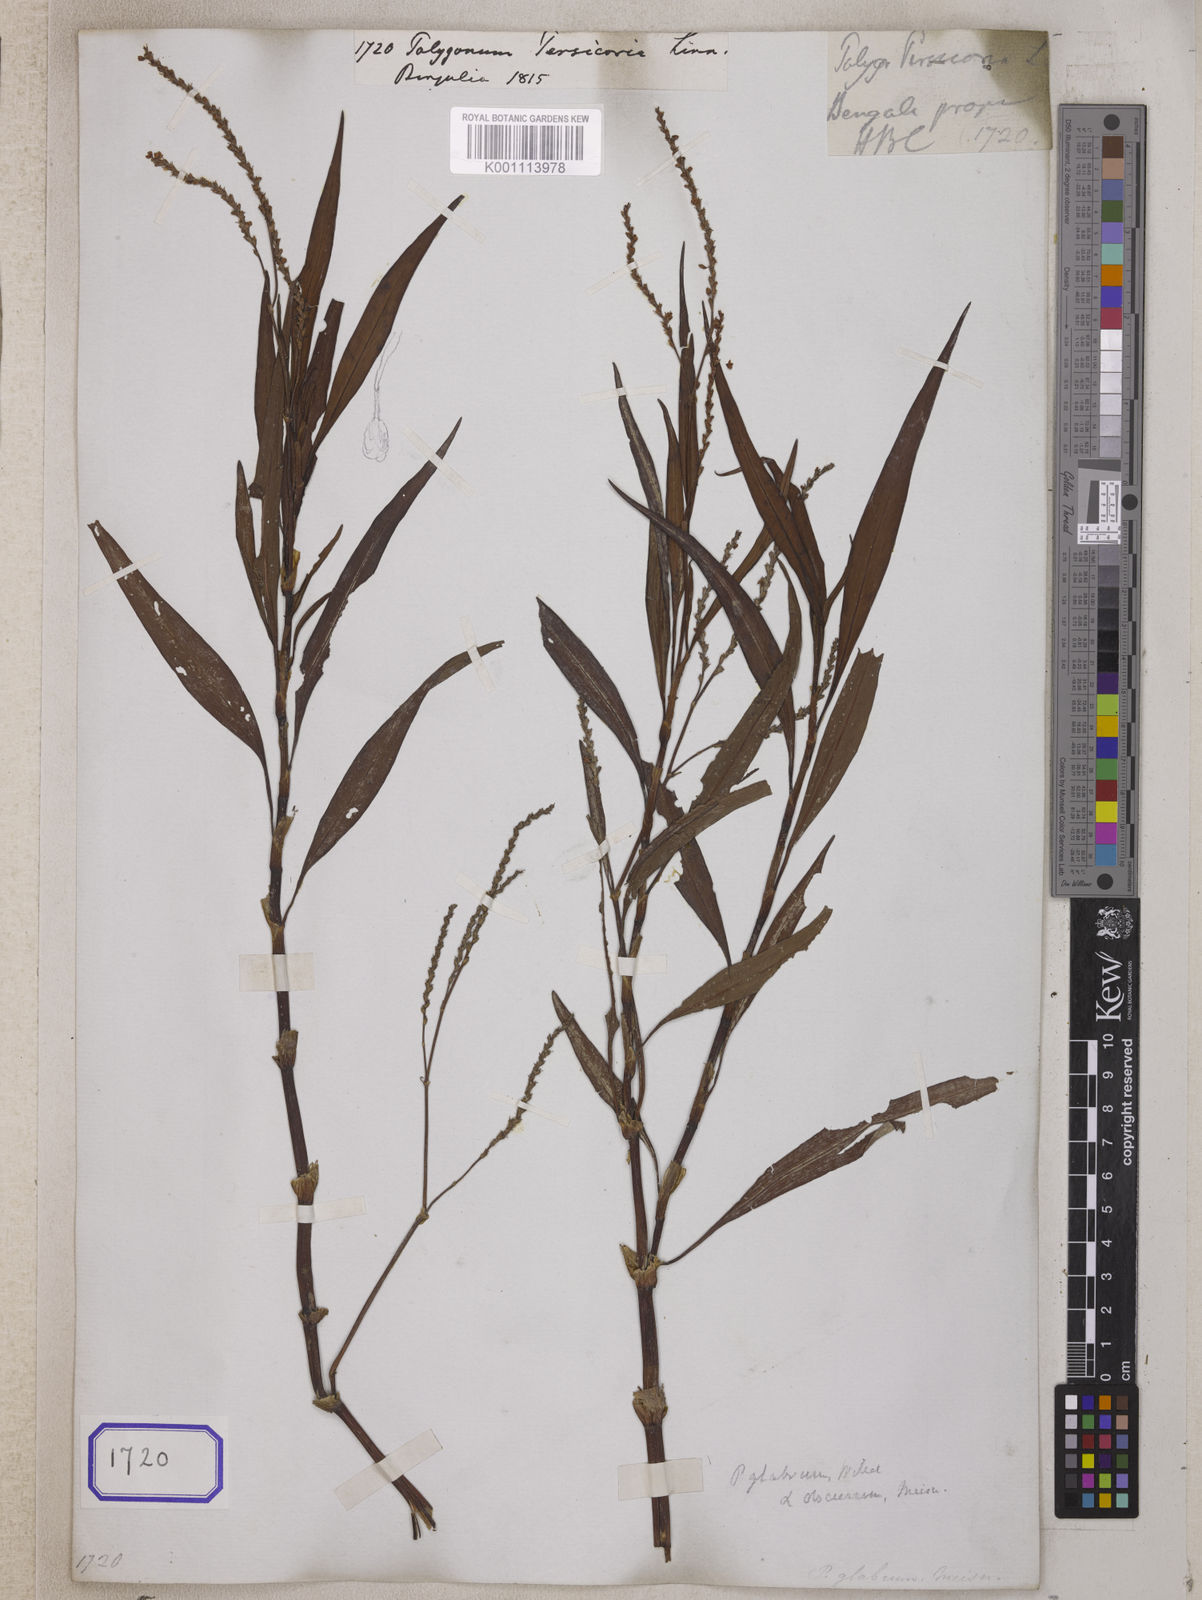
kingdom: Plantae
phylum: Tracheophyta
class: Magnoliopsida
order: Caryophyllales
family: Polygonaceae
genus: Persicaria
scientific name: Persicaria maculosa
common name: Redshank
